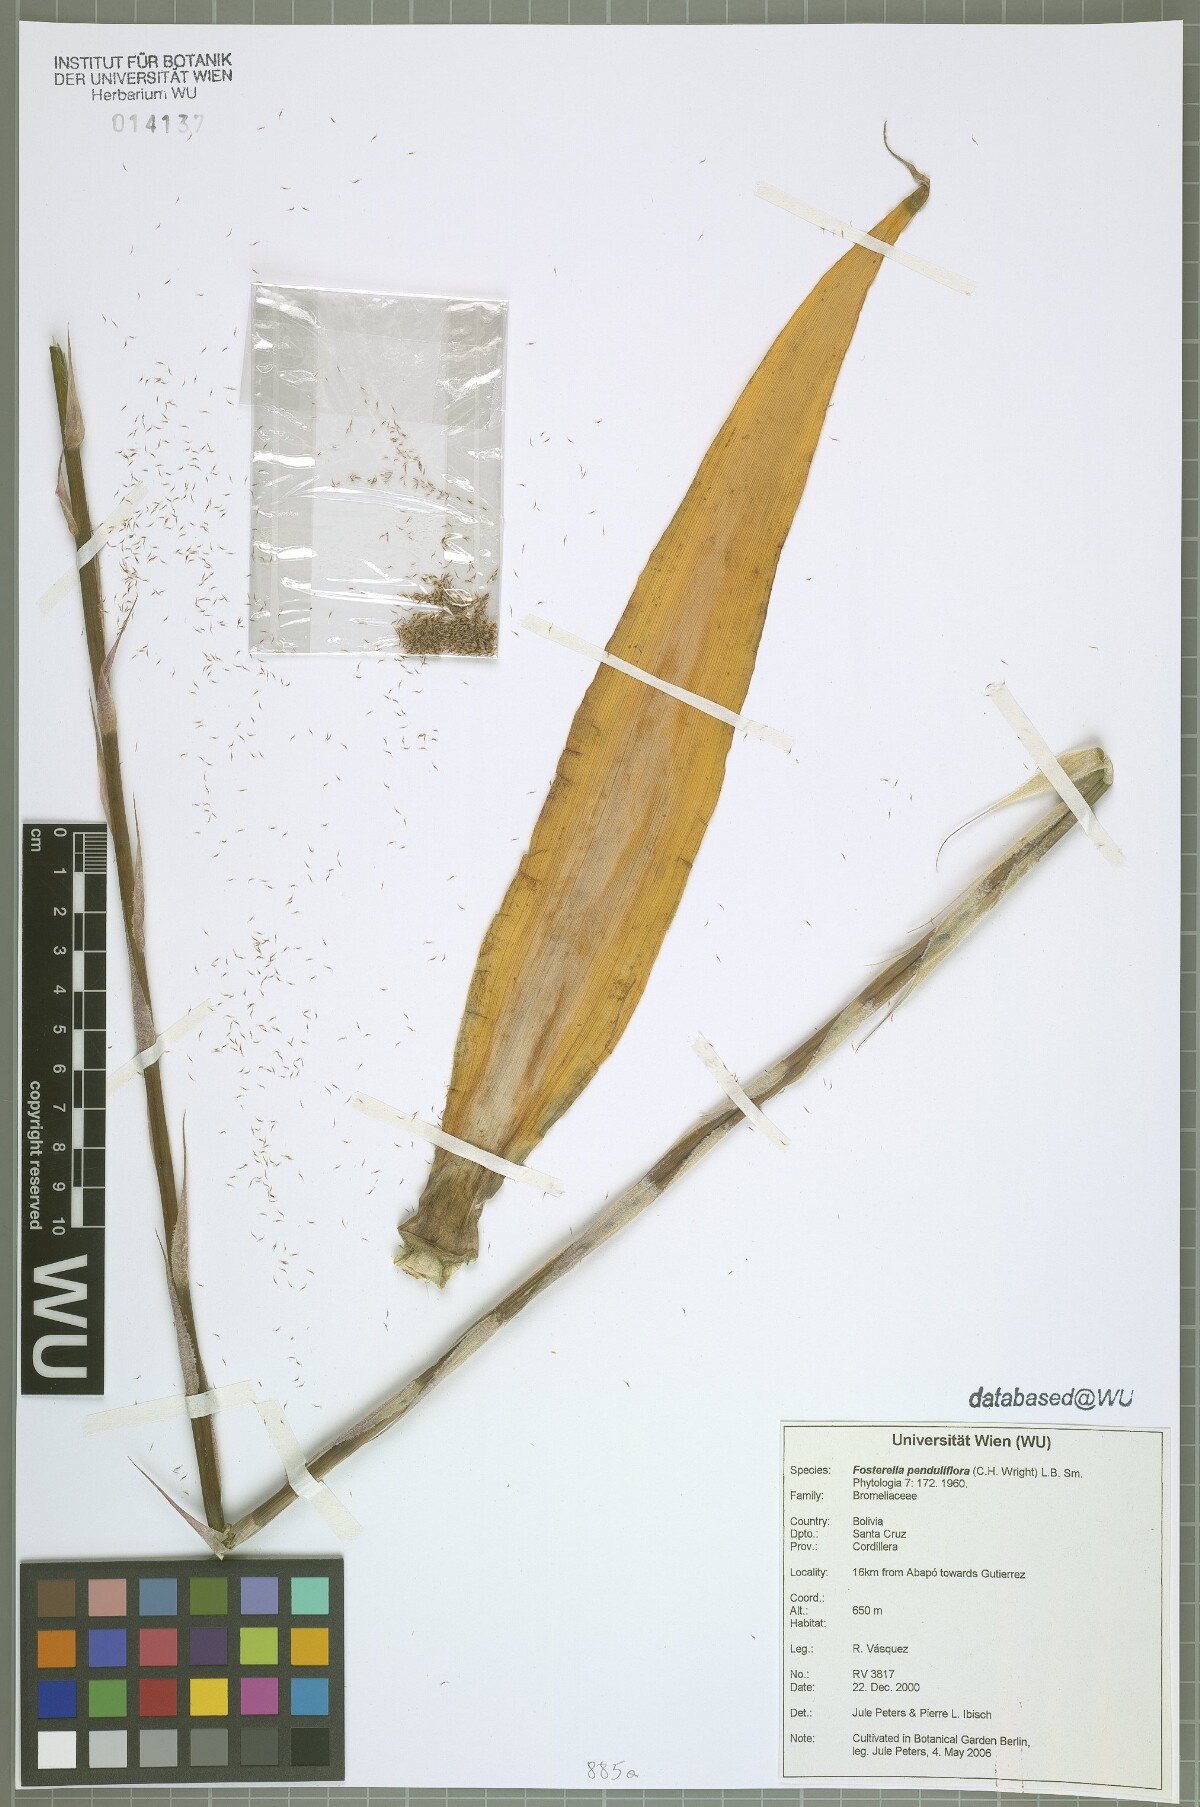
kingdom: Plantae
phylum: Tracheophyta
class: Liliopsida
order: Poales
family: Bromeliaceae
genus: Fosterella
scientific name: Fosterella penduliflora
